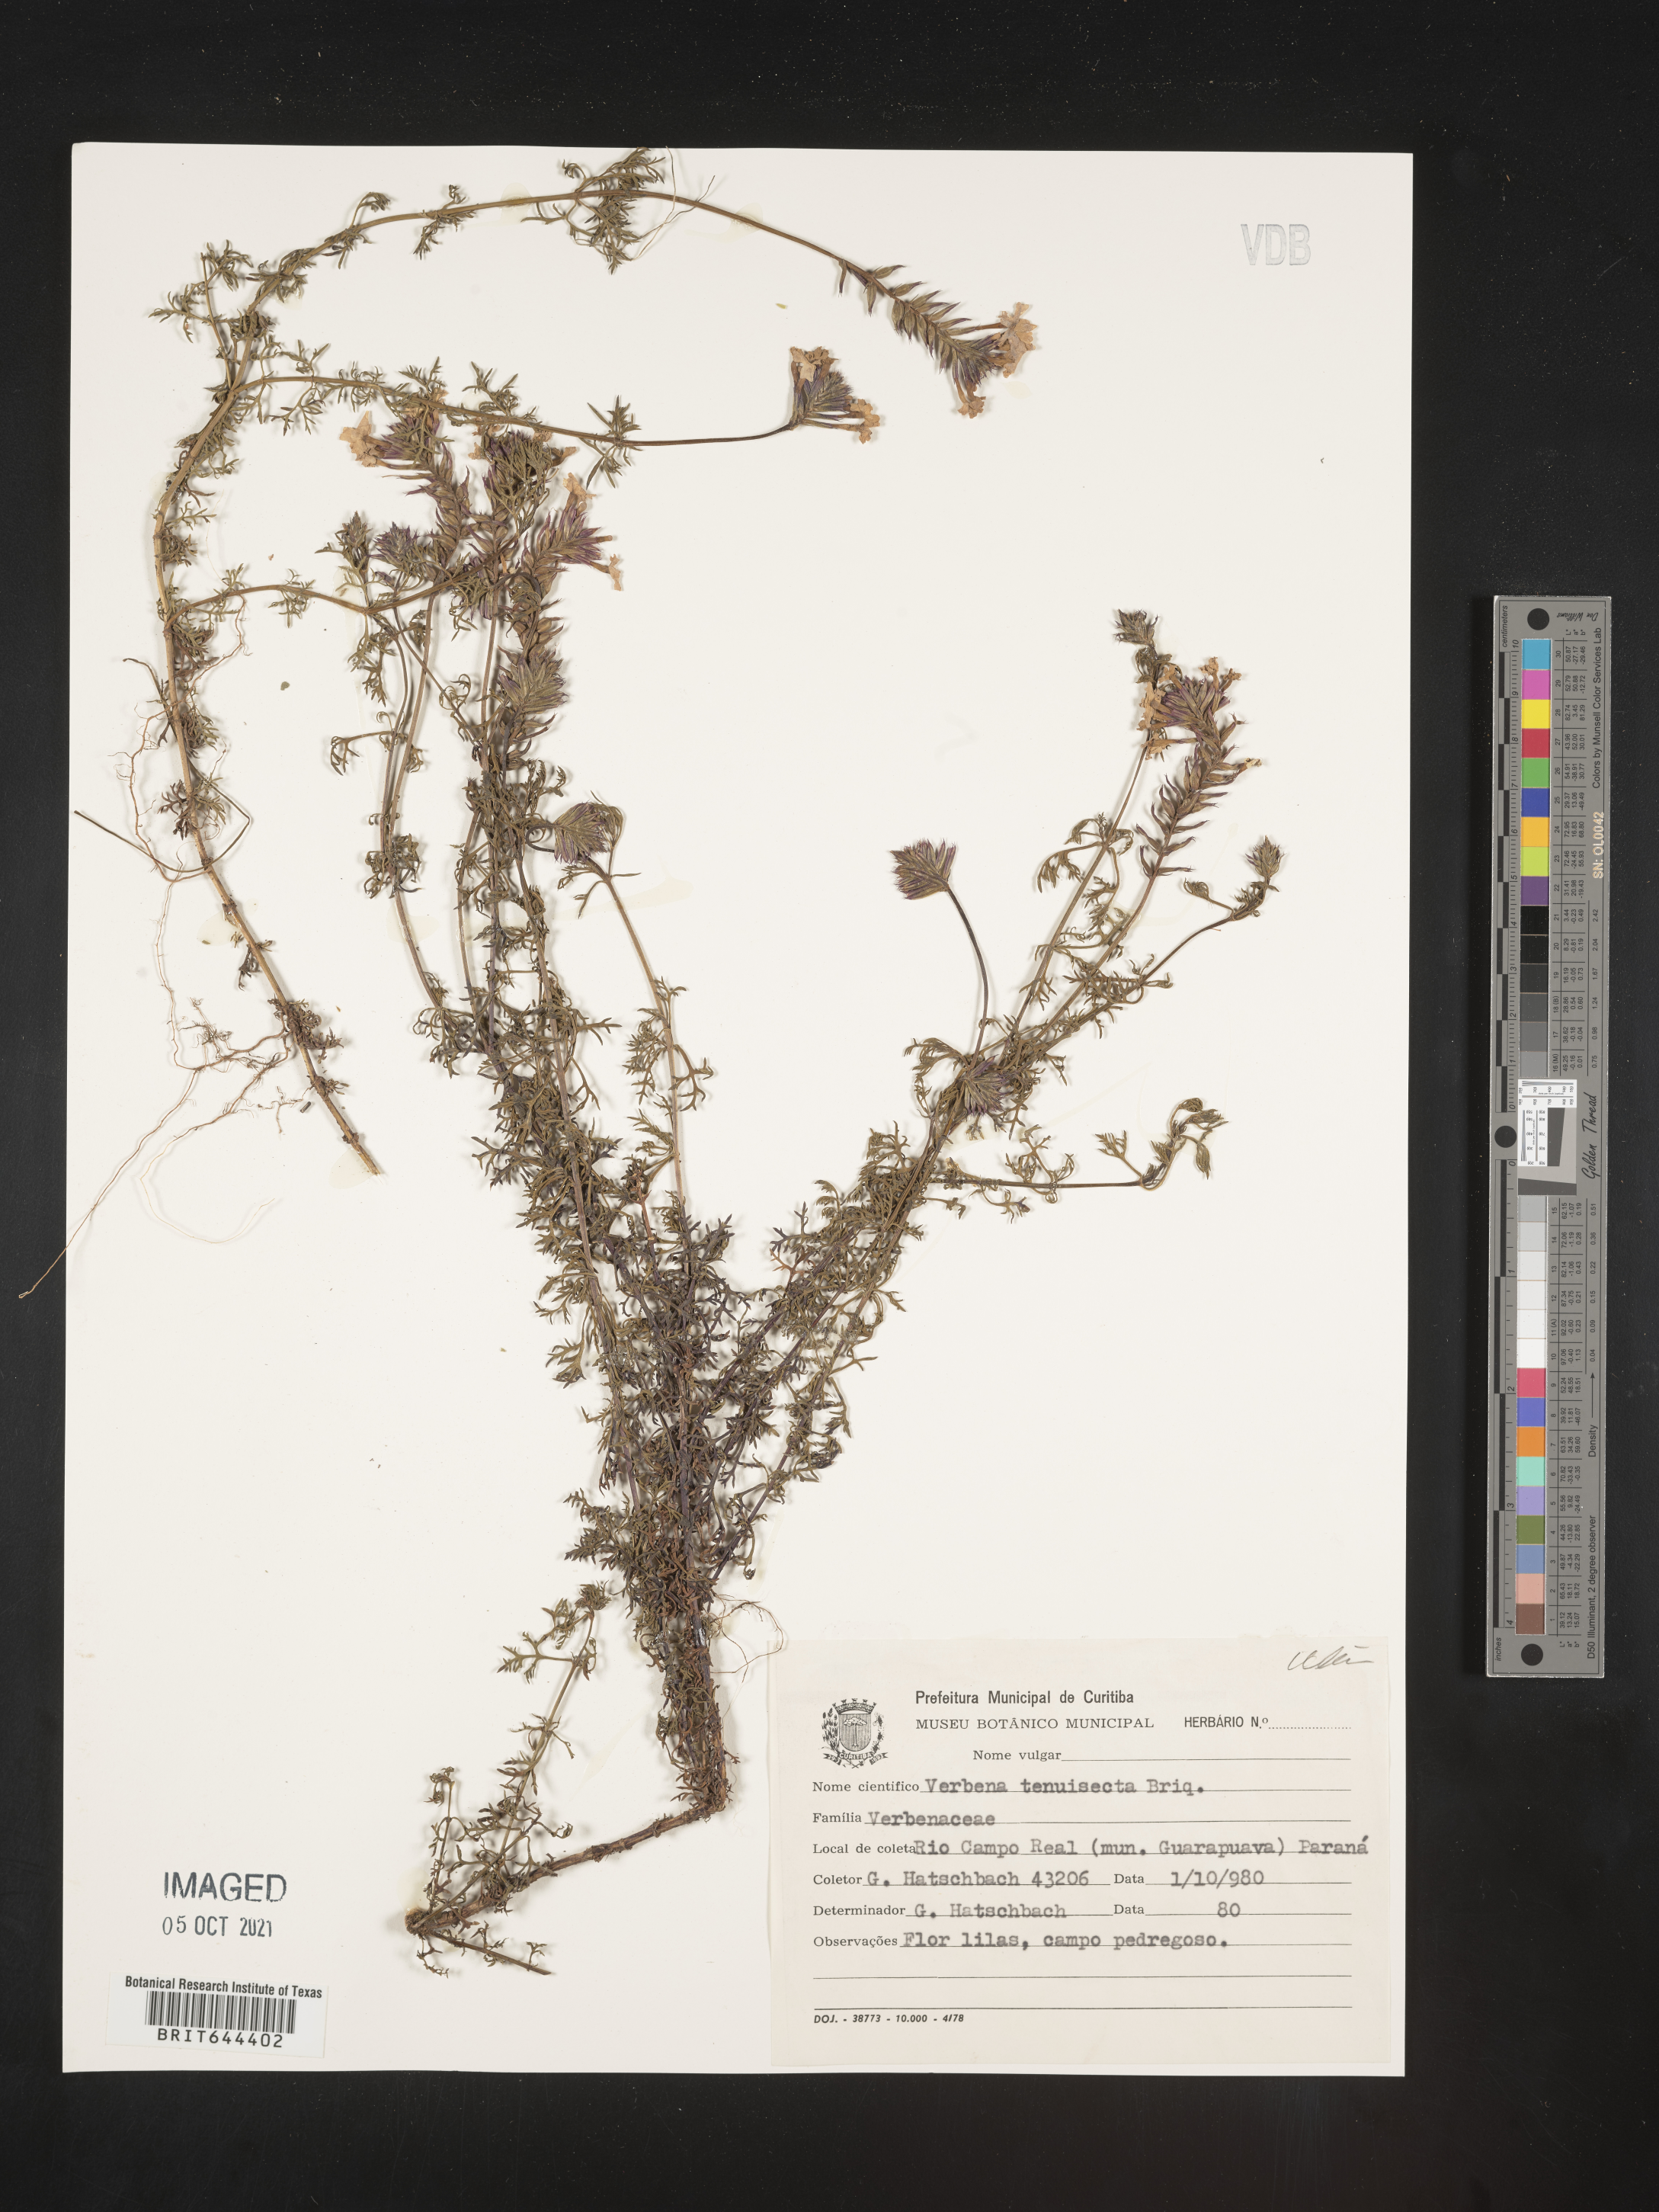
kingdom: Plantae
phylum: Tracheophyta
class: Magnoliopsida
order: Lamiales
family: Verbenaceae
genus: Verbena
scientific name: Verbena
